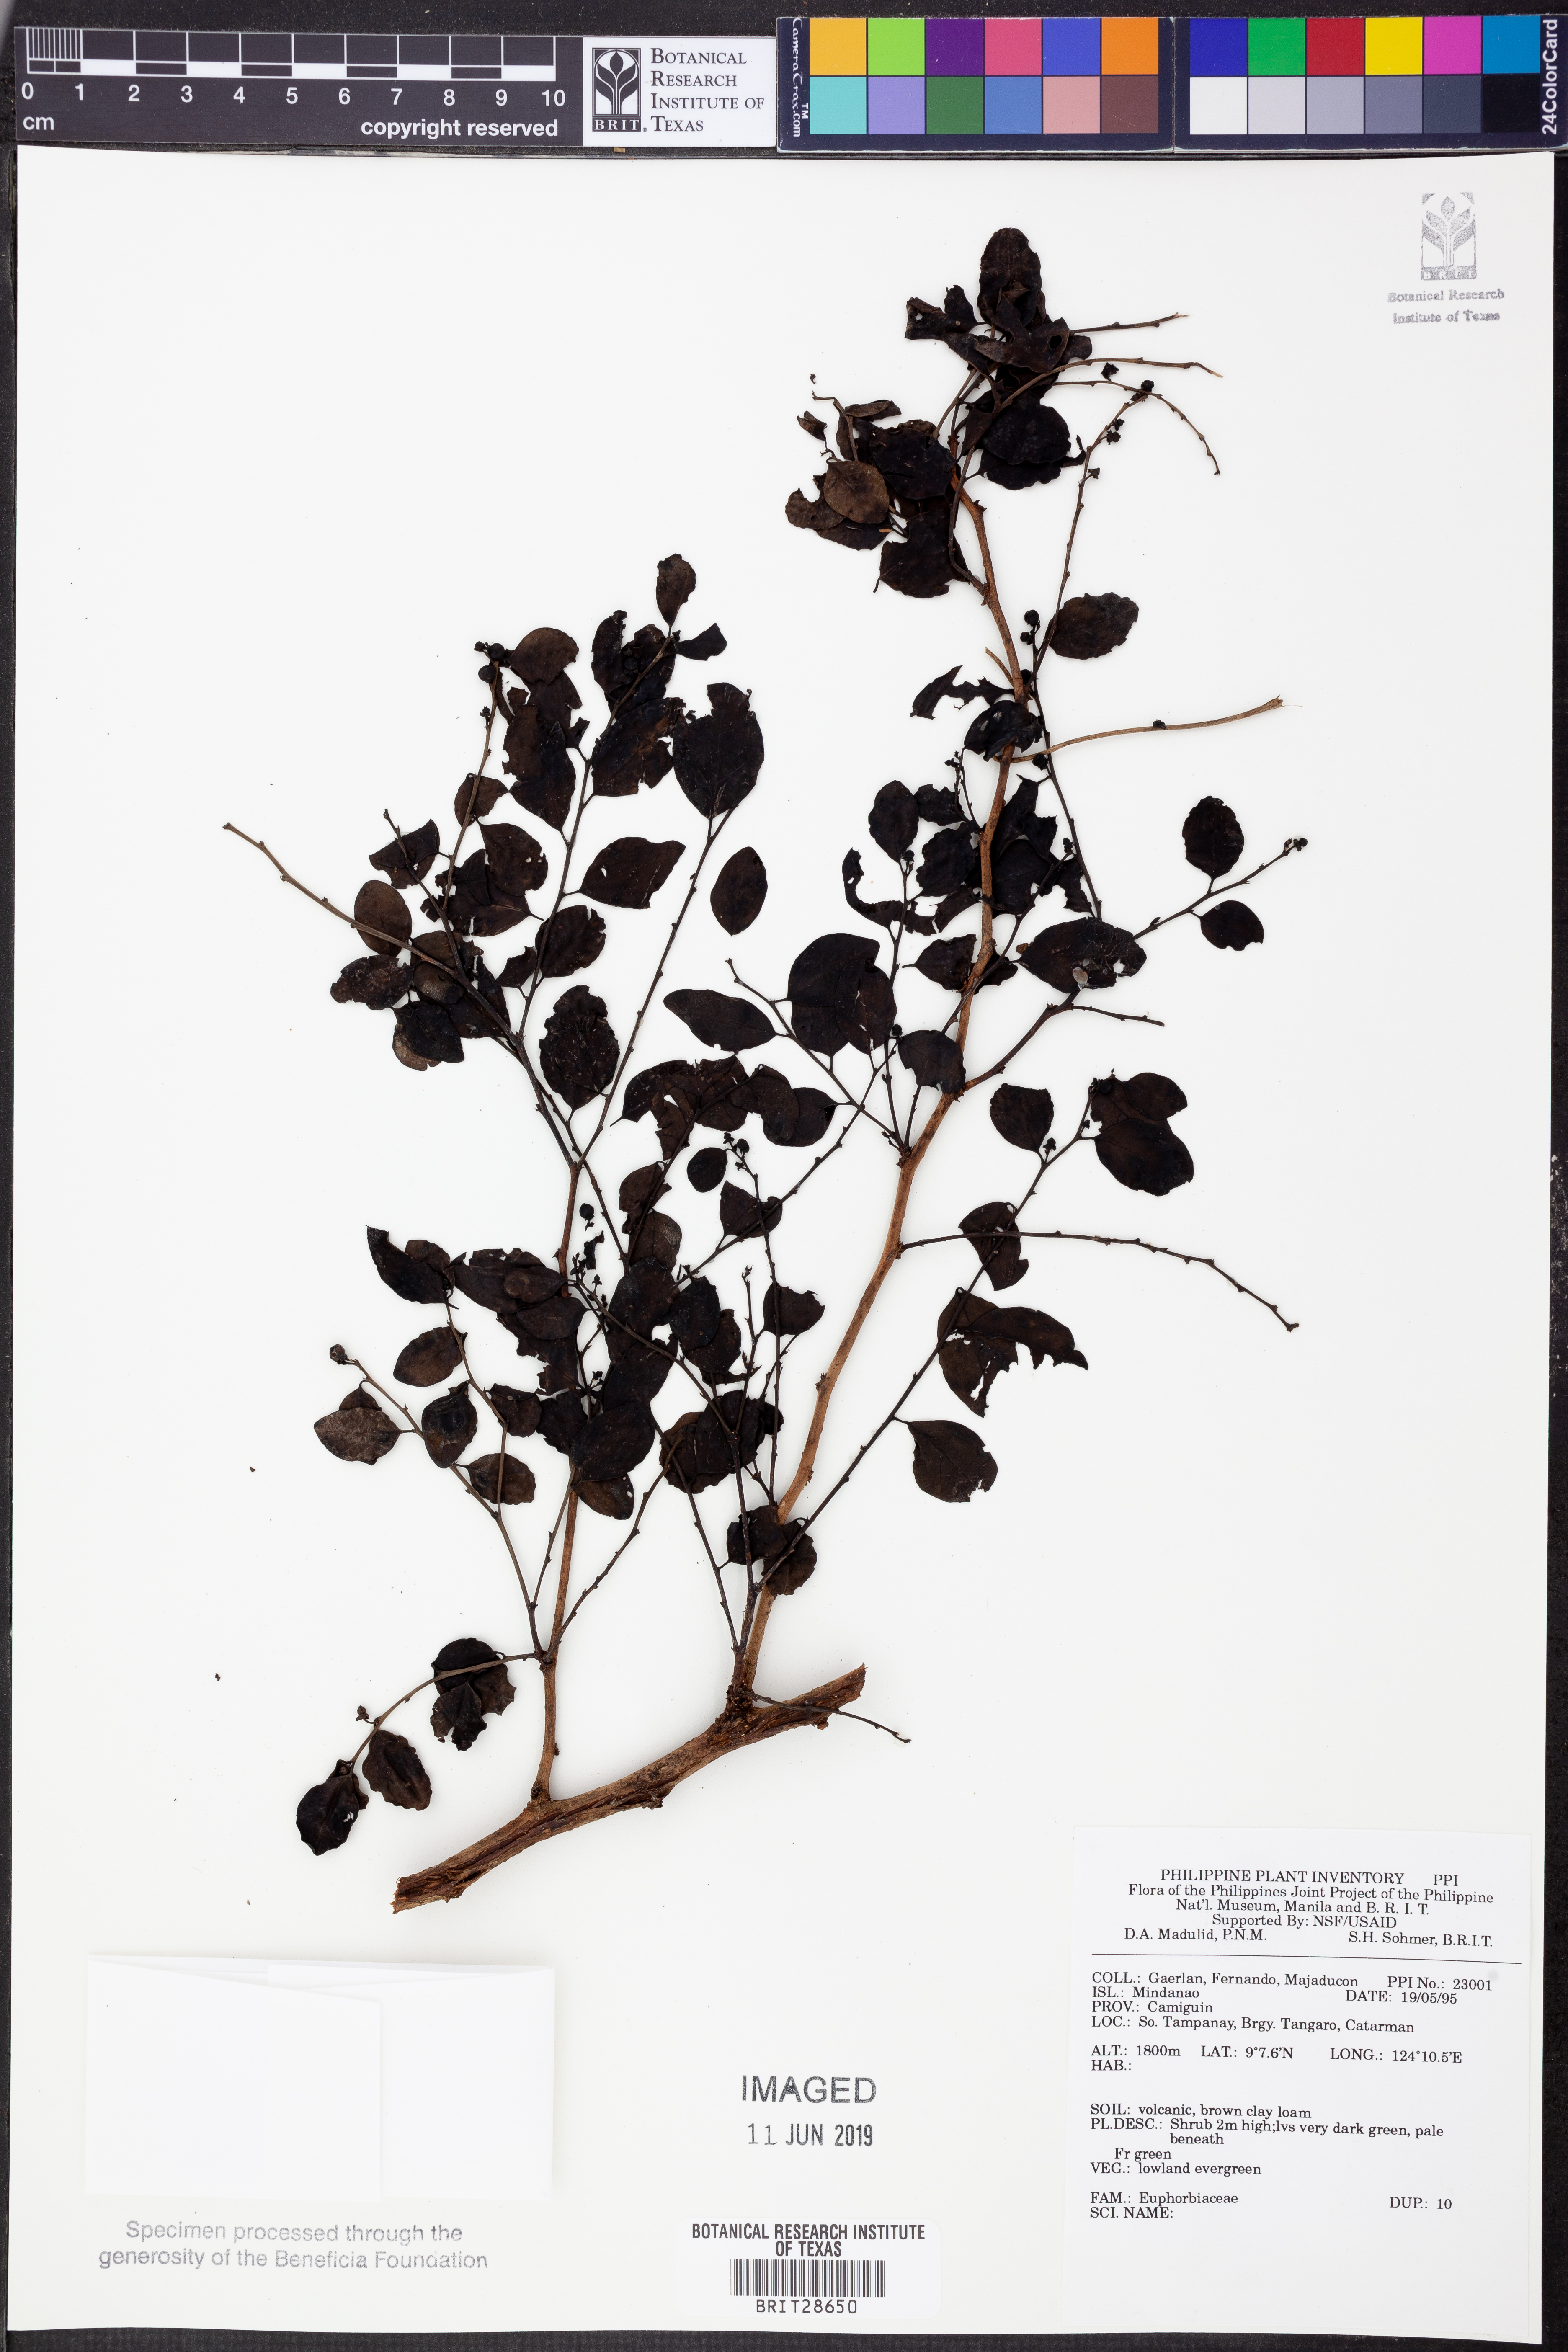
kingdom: Plantae
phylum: Tracheophyta
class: Magnoliopsida
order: Malpighiales
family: Euphorbiaceae
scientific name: Euphorbiaceae
